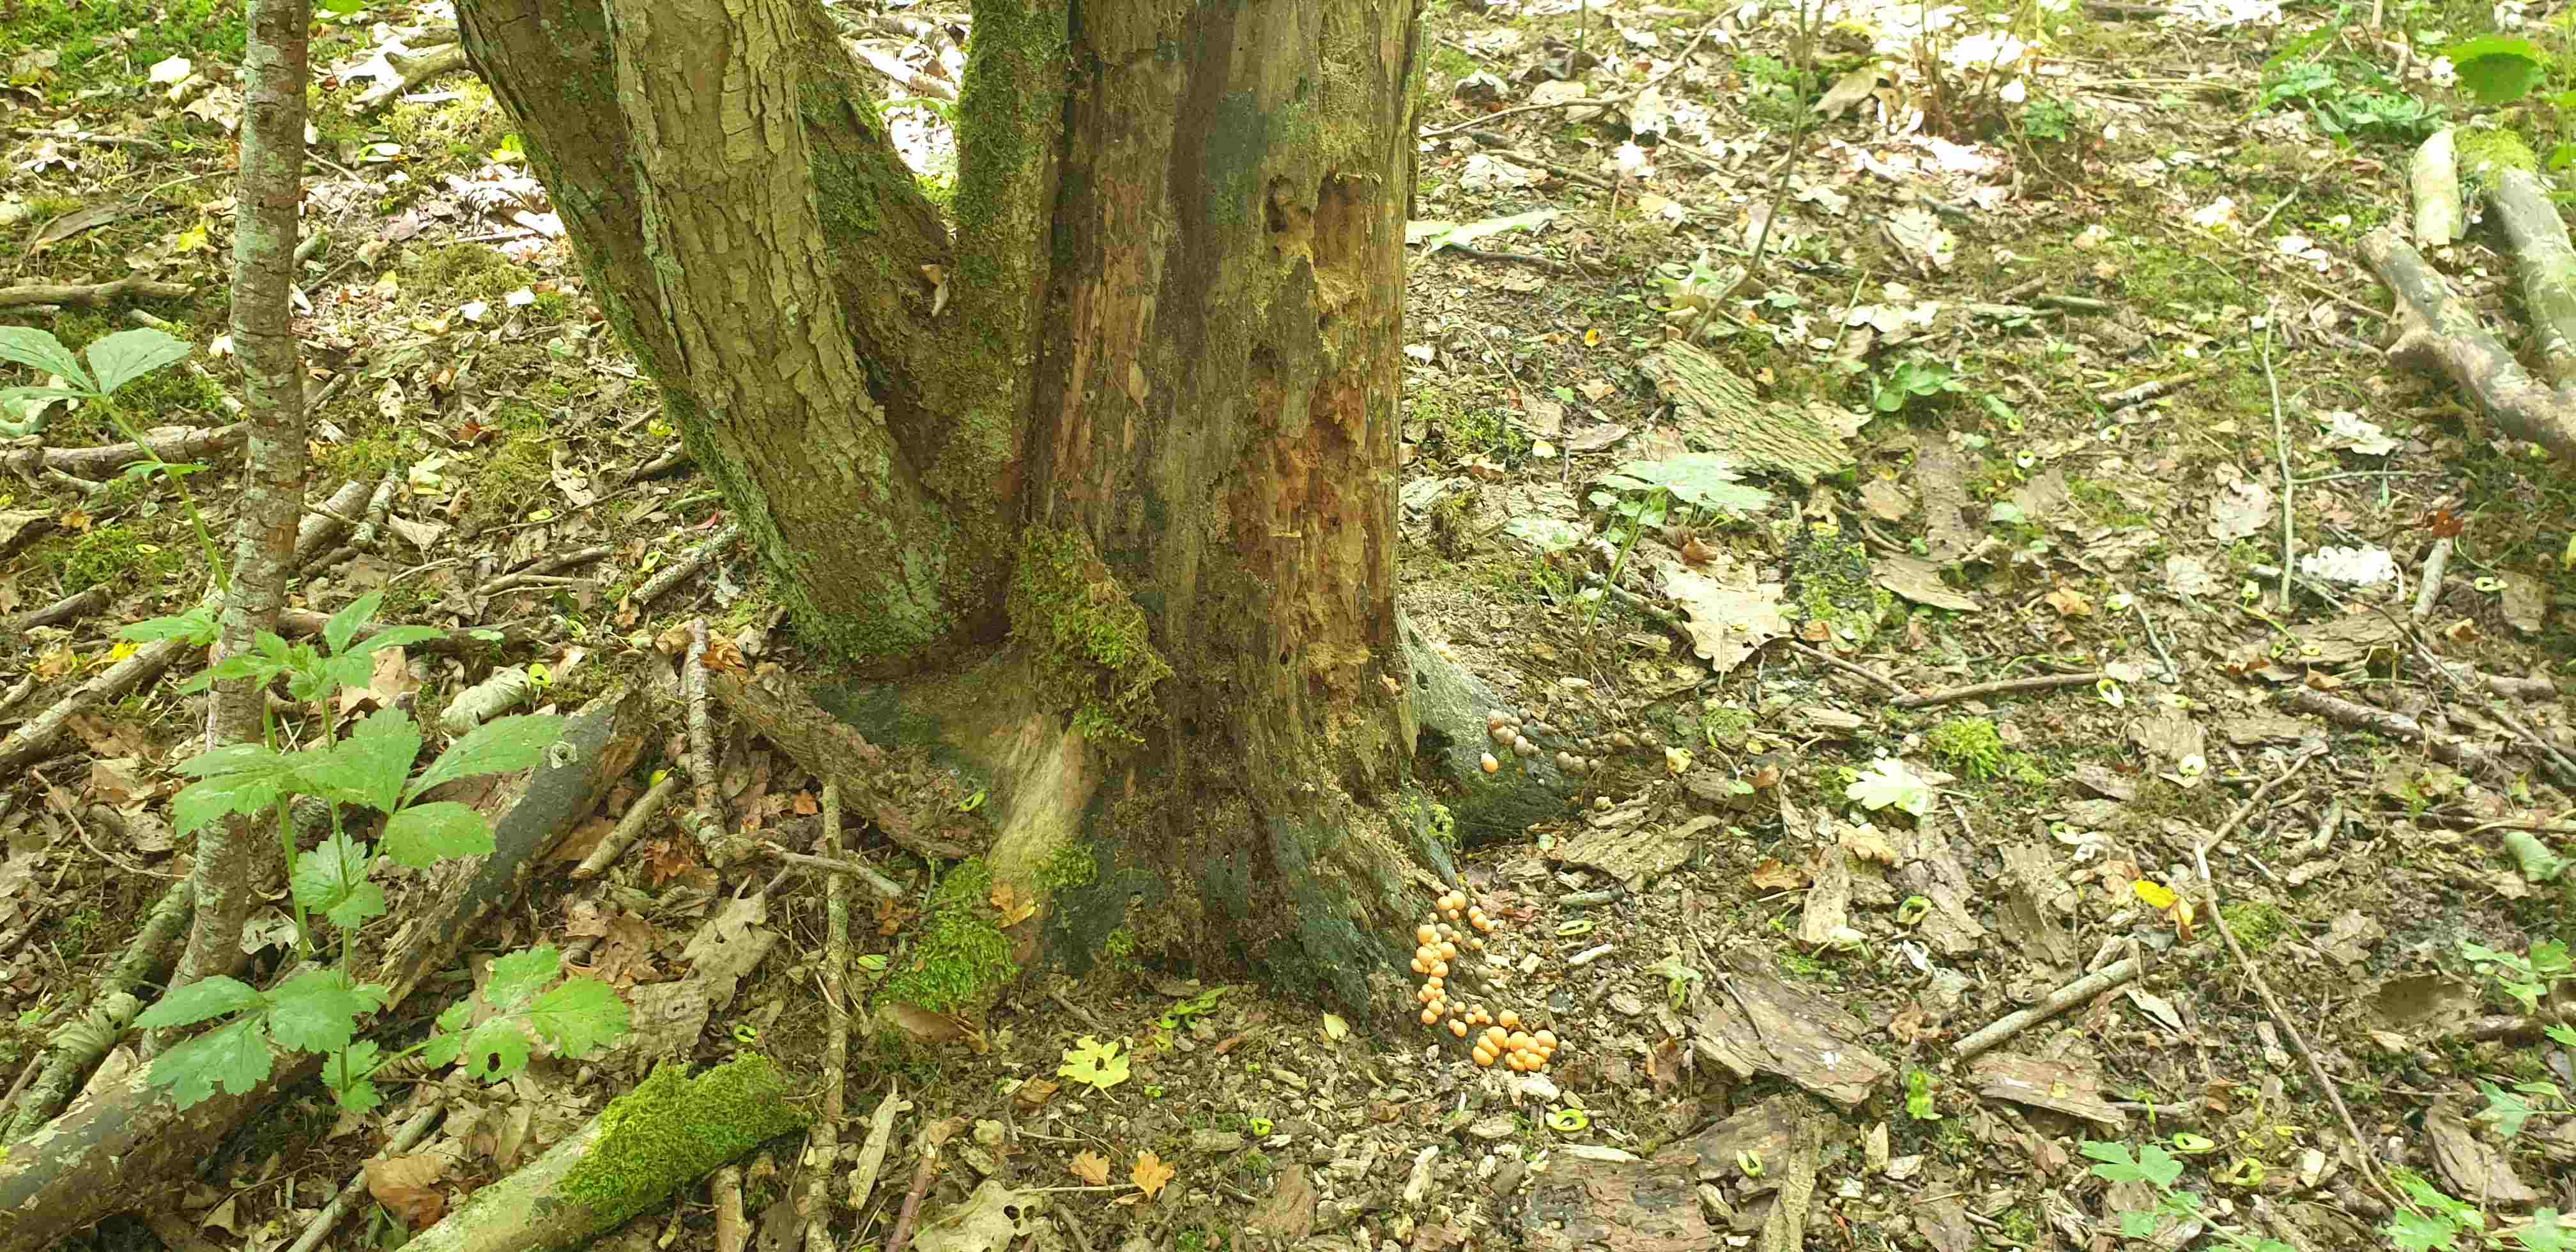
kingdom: Protozoa
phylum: Mycetozoa
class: Myxomycetes
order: Cribrariales
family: Tubiferaceae
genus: Lycogala
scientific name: Lycogala epidendrum
